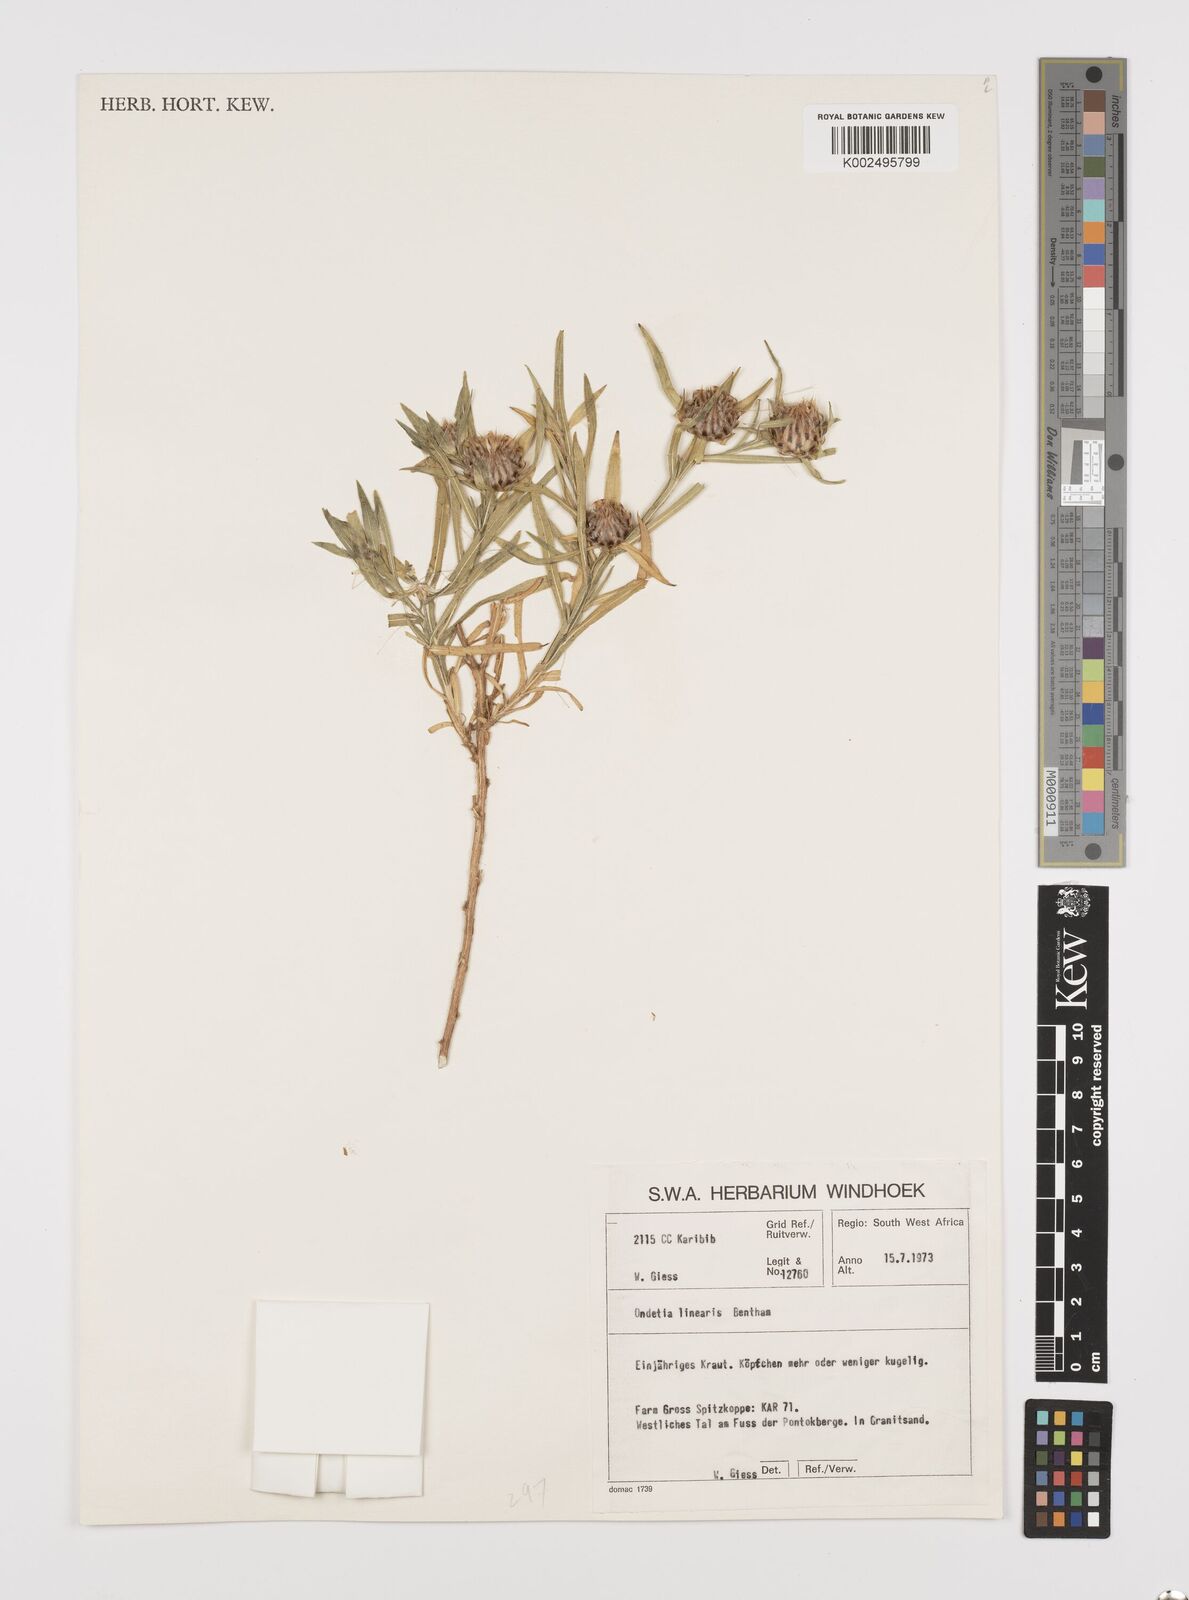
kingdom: Plantae
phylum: Tracheophyta
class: Magnoliopsida
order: Asterales
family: Asteraceae
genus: Ondetia
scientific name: Ondetia linearis
